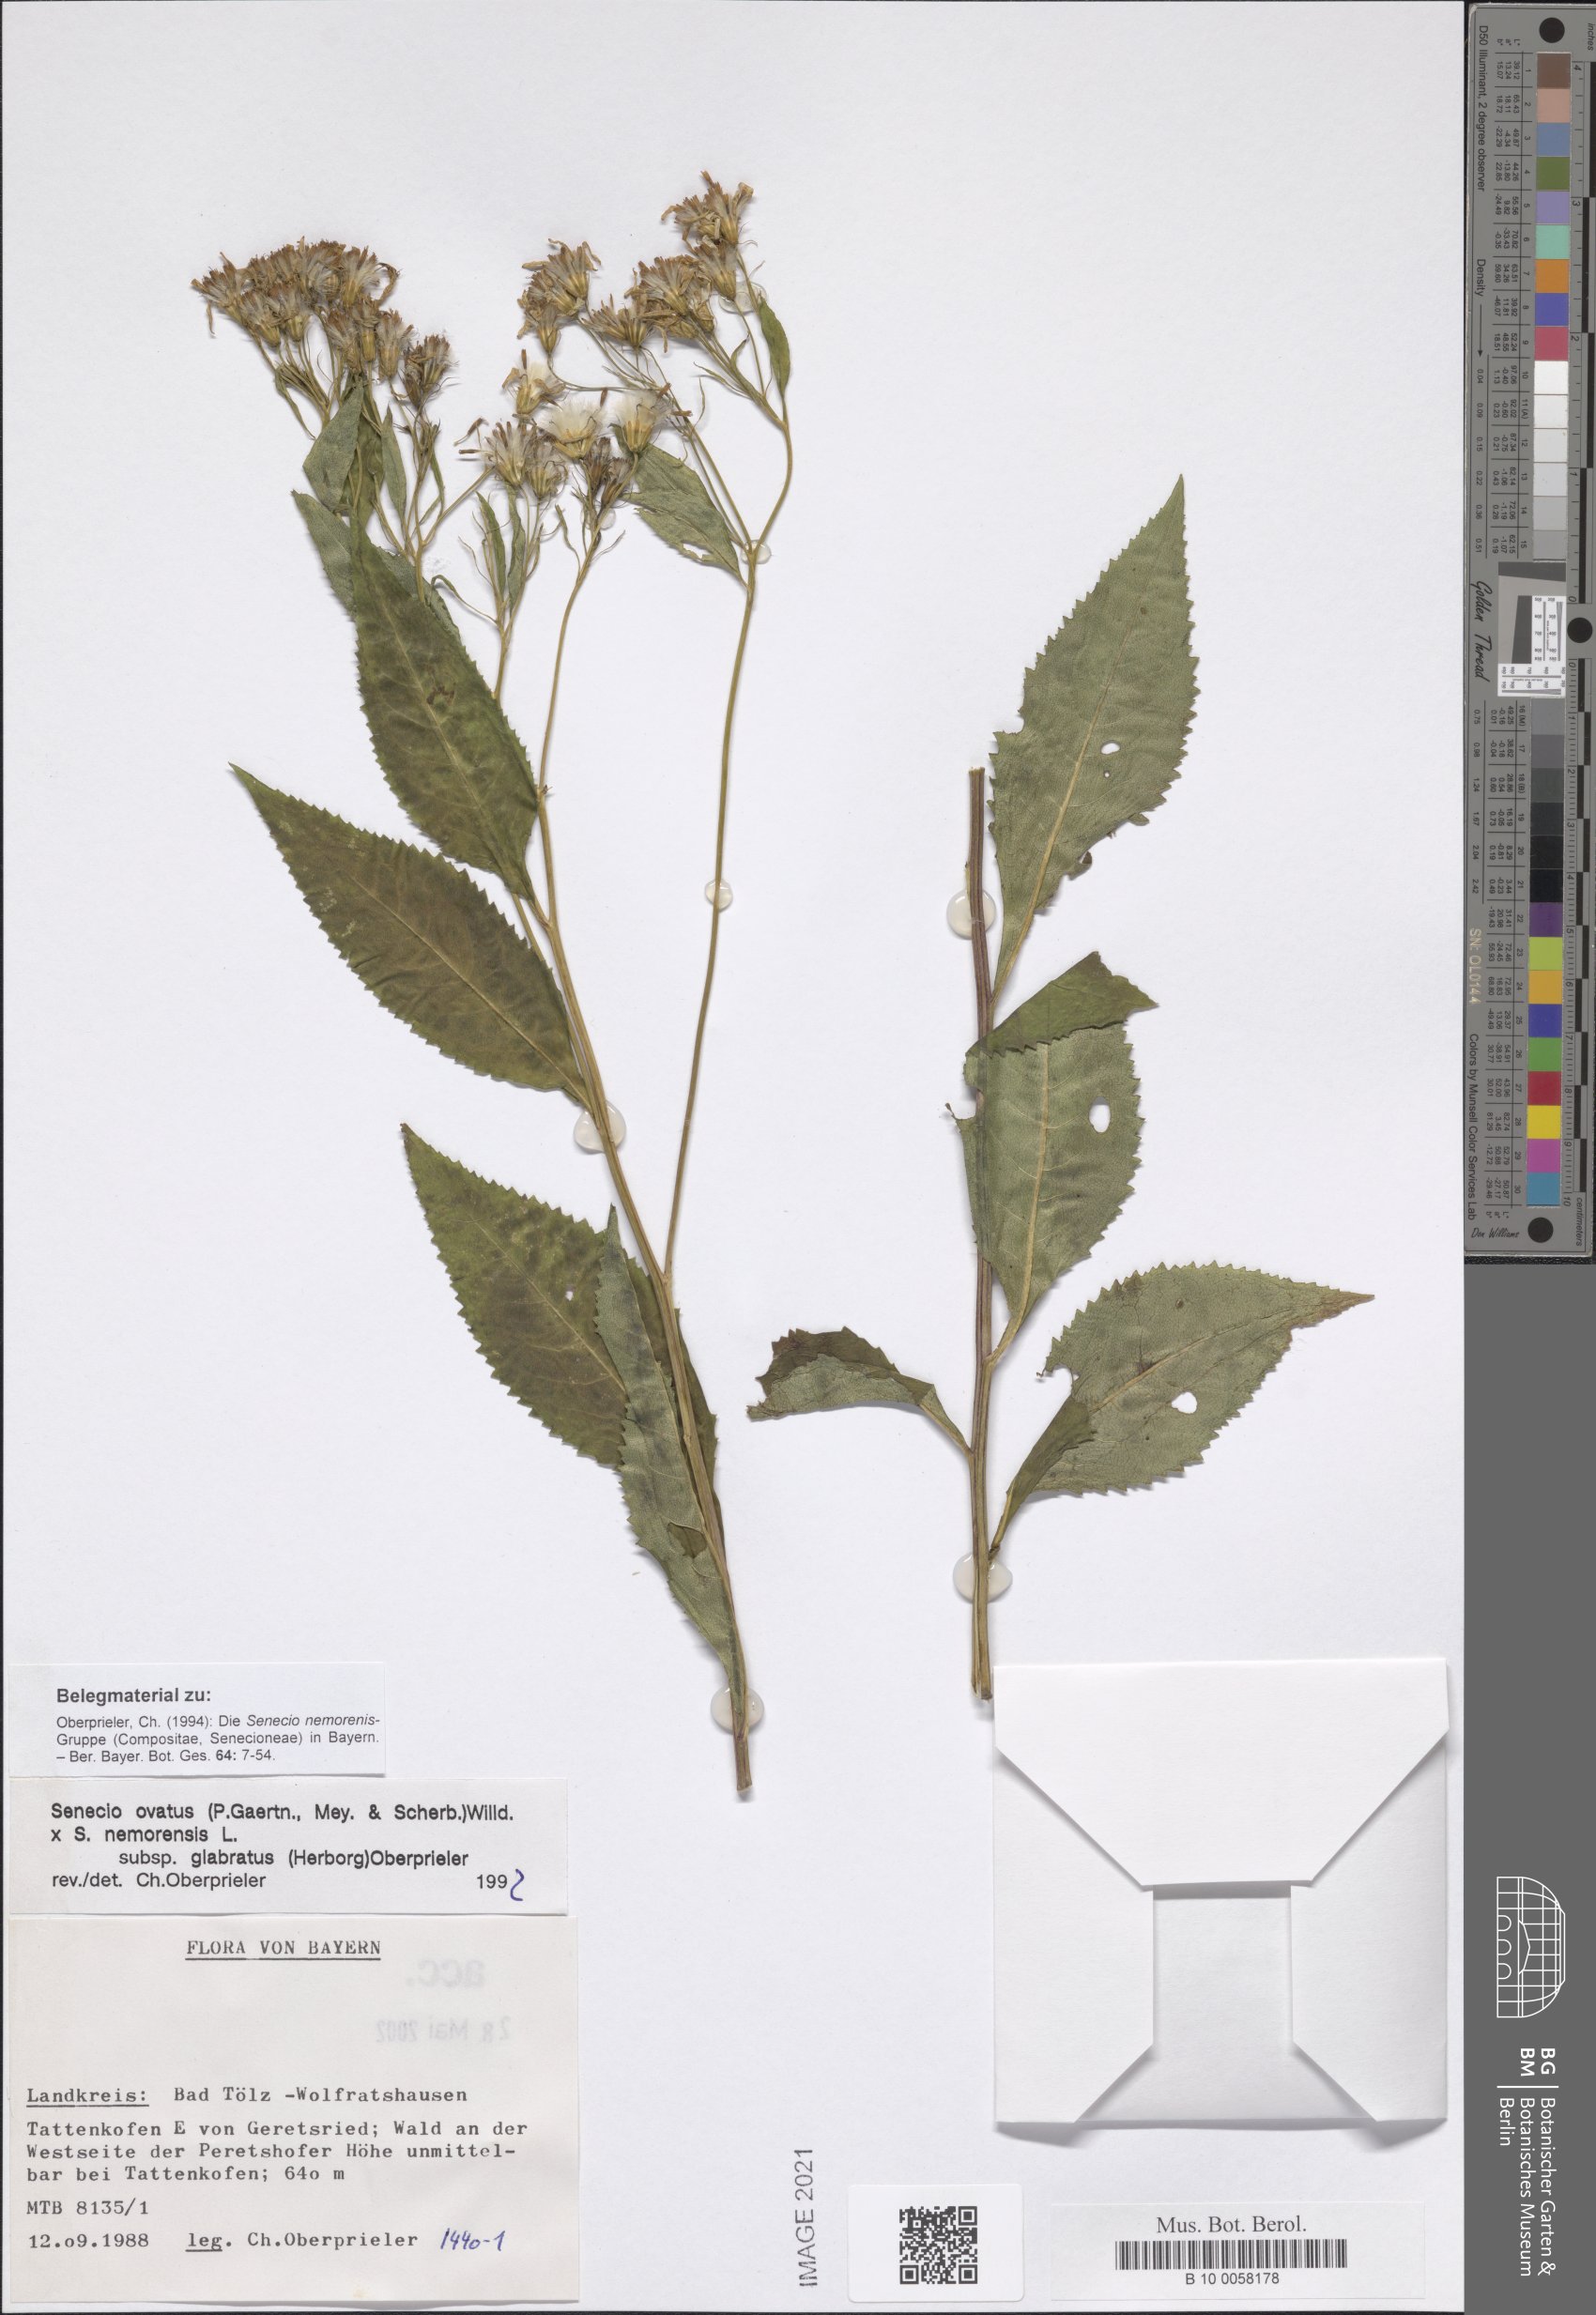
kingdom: Plantae
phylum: Tracheophyta
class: Magnoliopsida
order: Asterales
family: Asteraceae
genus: Senecio
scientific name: Senecio ovatus
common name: Wood ragwort
